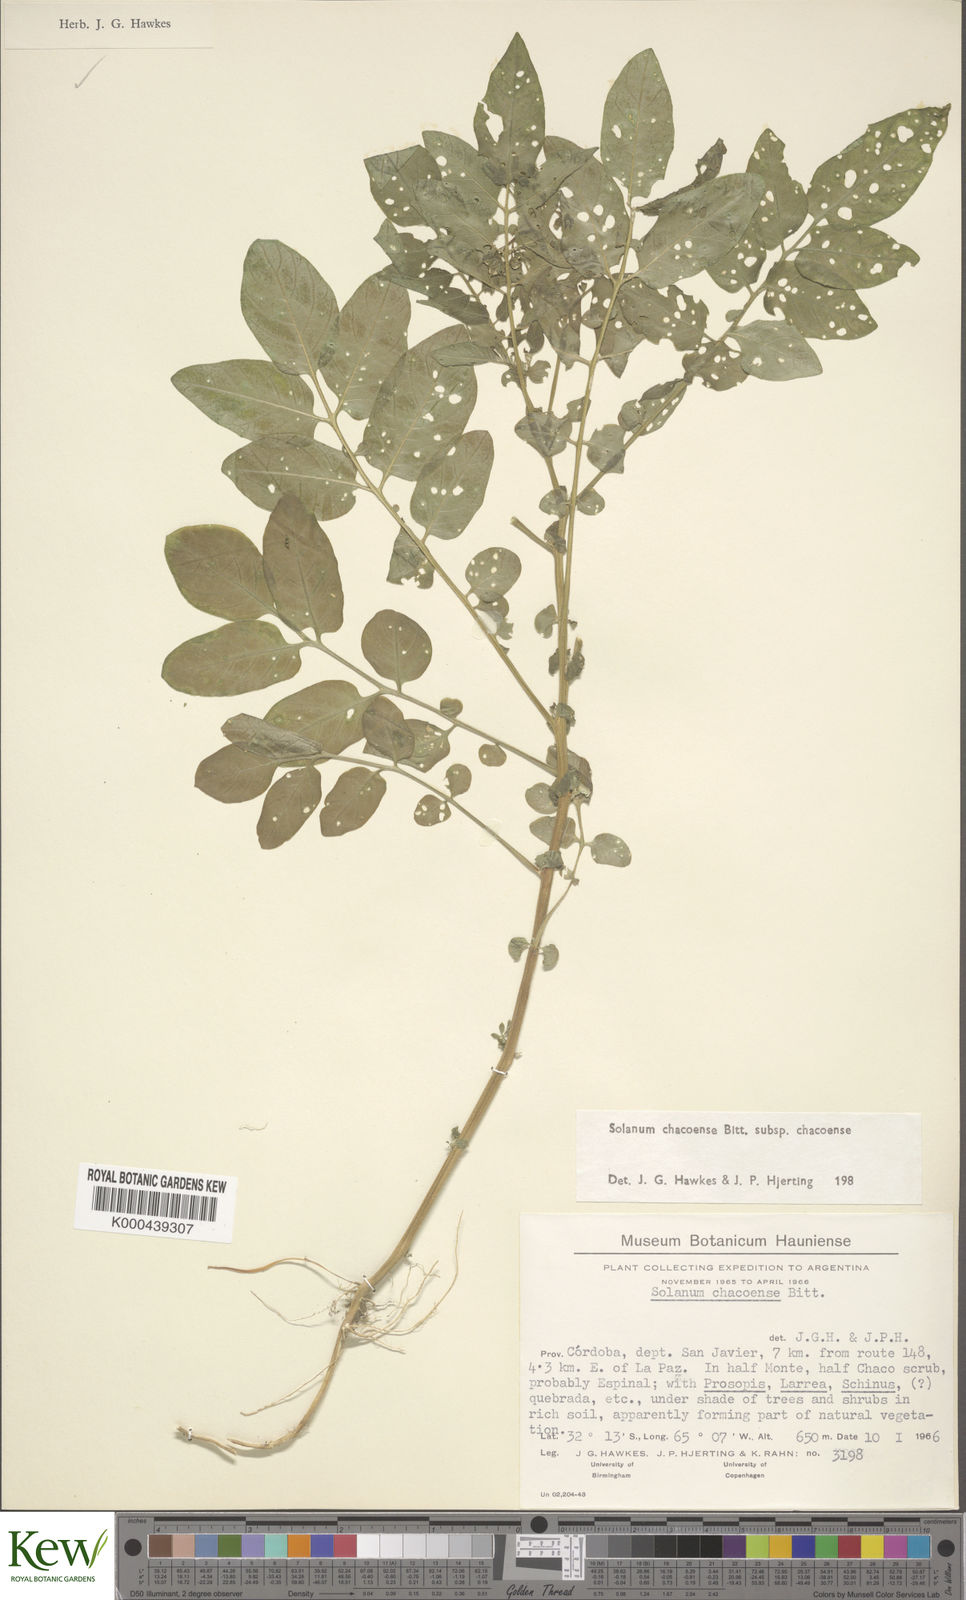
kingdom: Plantae
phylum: Tracheophyta
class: Magnoliopsida
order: Solanales
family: Solanaceae
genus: Solanum
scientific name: Solanum chacoense
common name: Chaco potato
